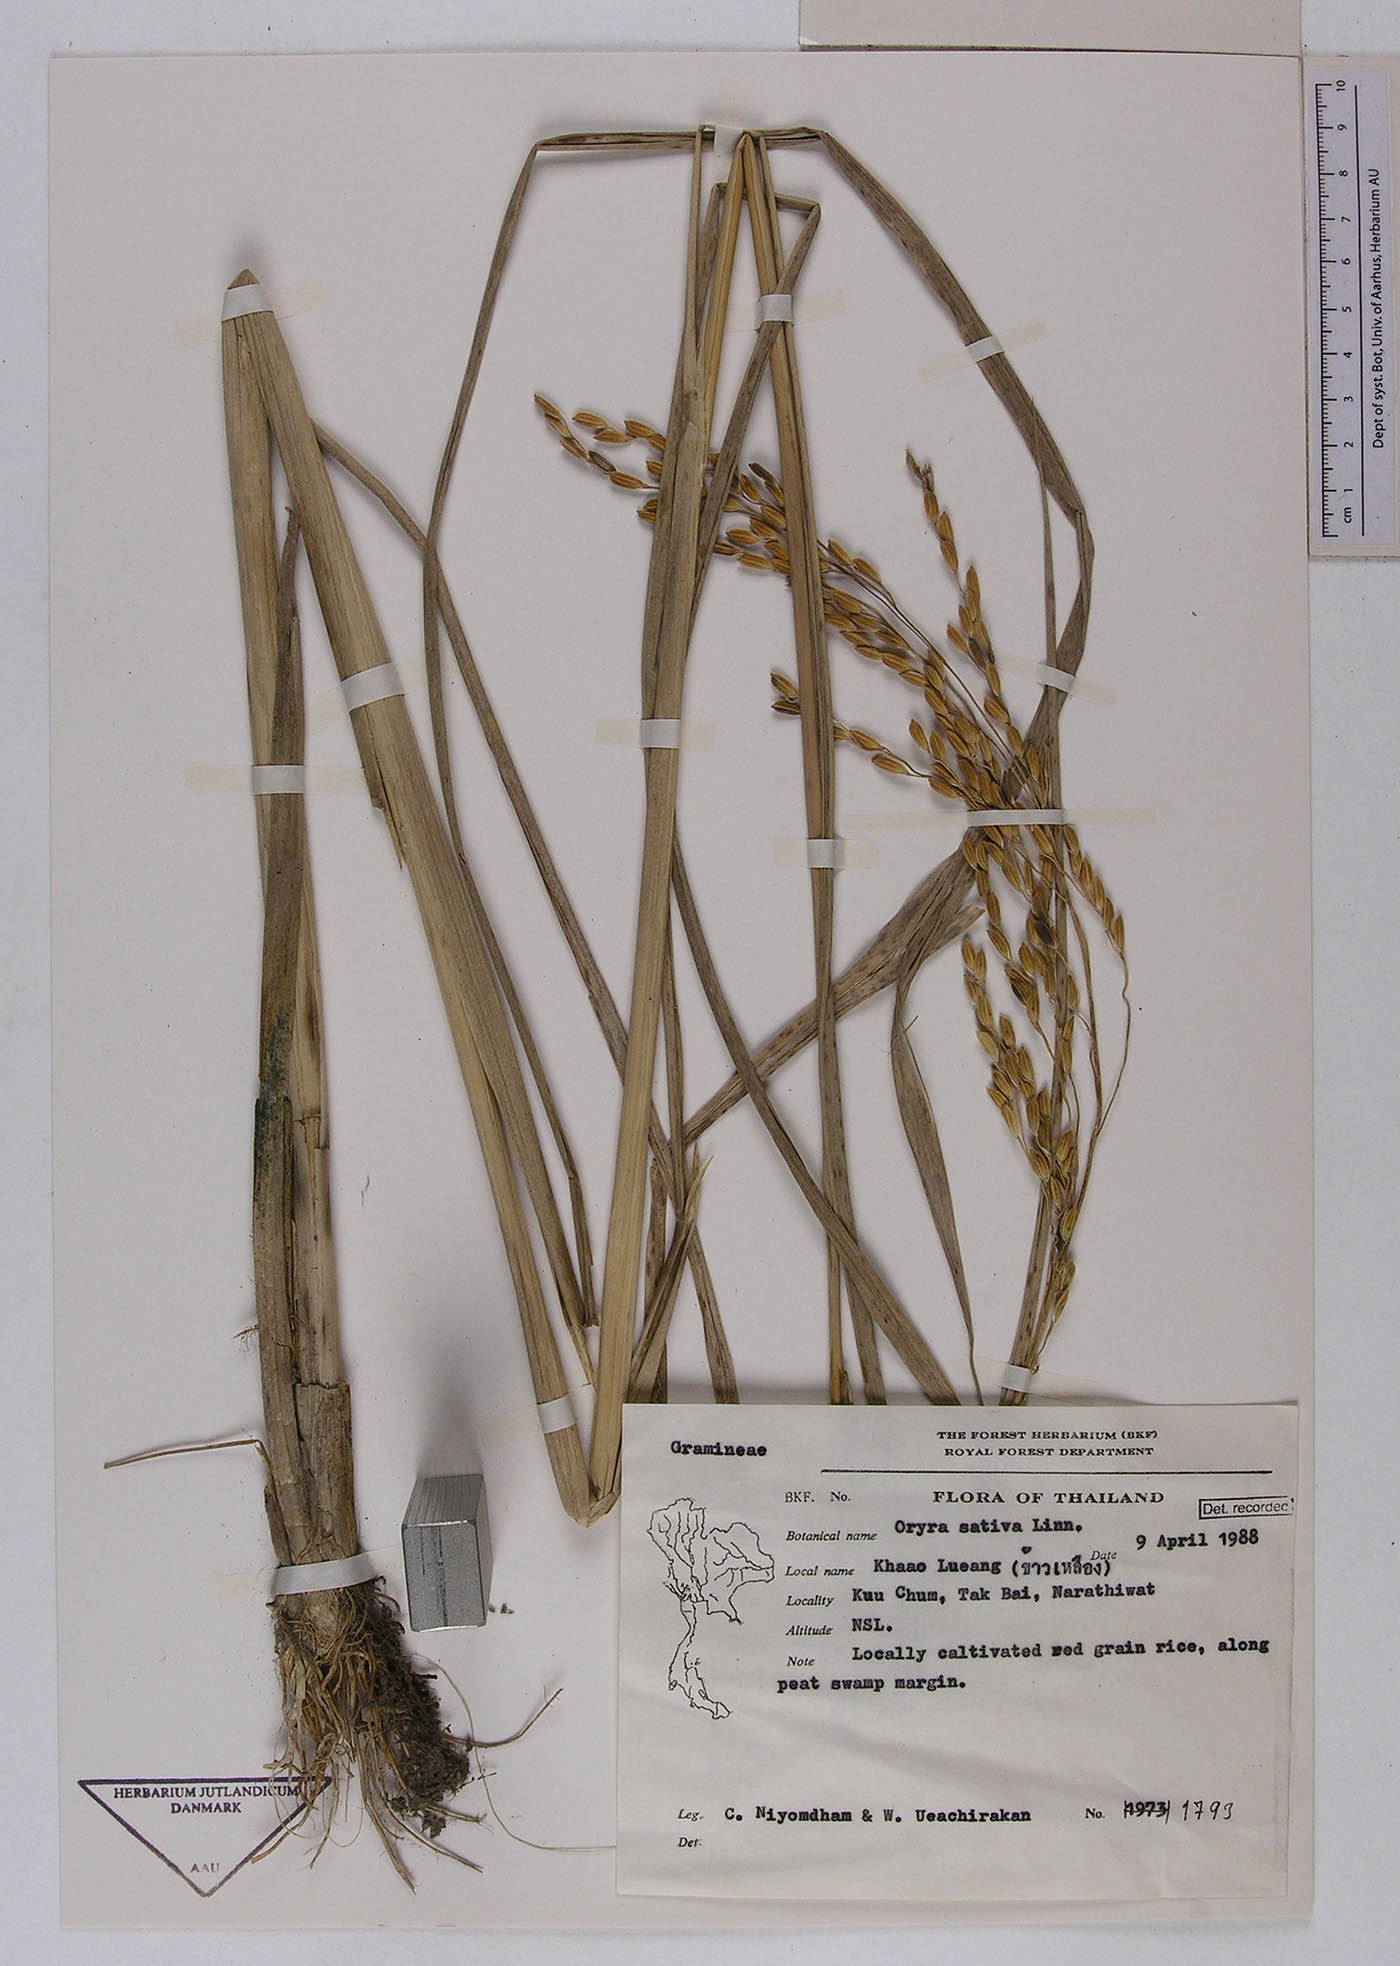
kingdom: Plantae
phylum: Tracheophyta
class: Liliopsida
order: Poales
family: Poaceae
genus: Oryza
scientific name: Oryza sativa
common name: Rice
